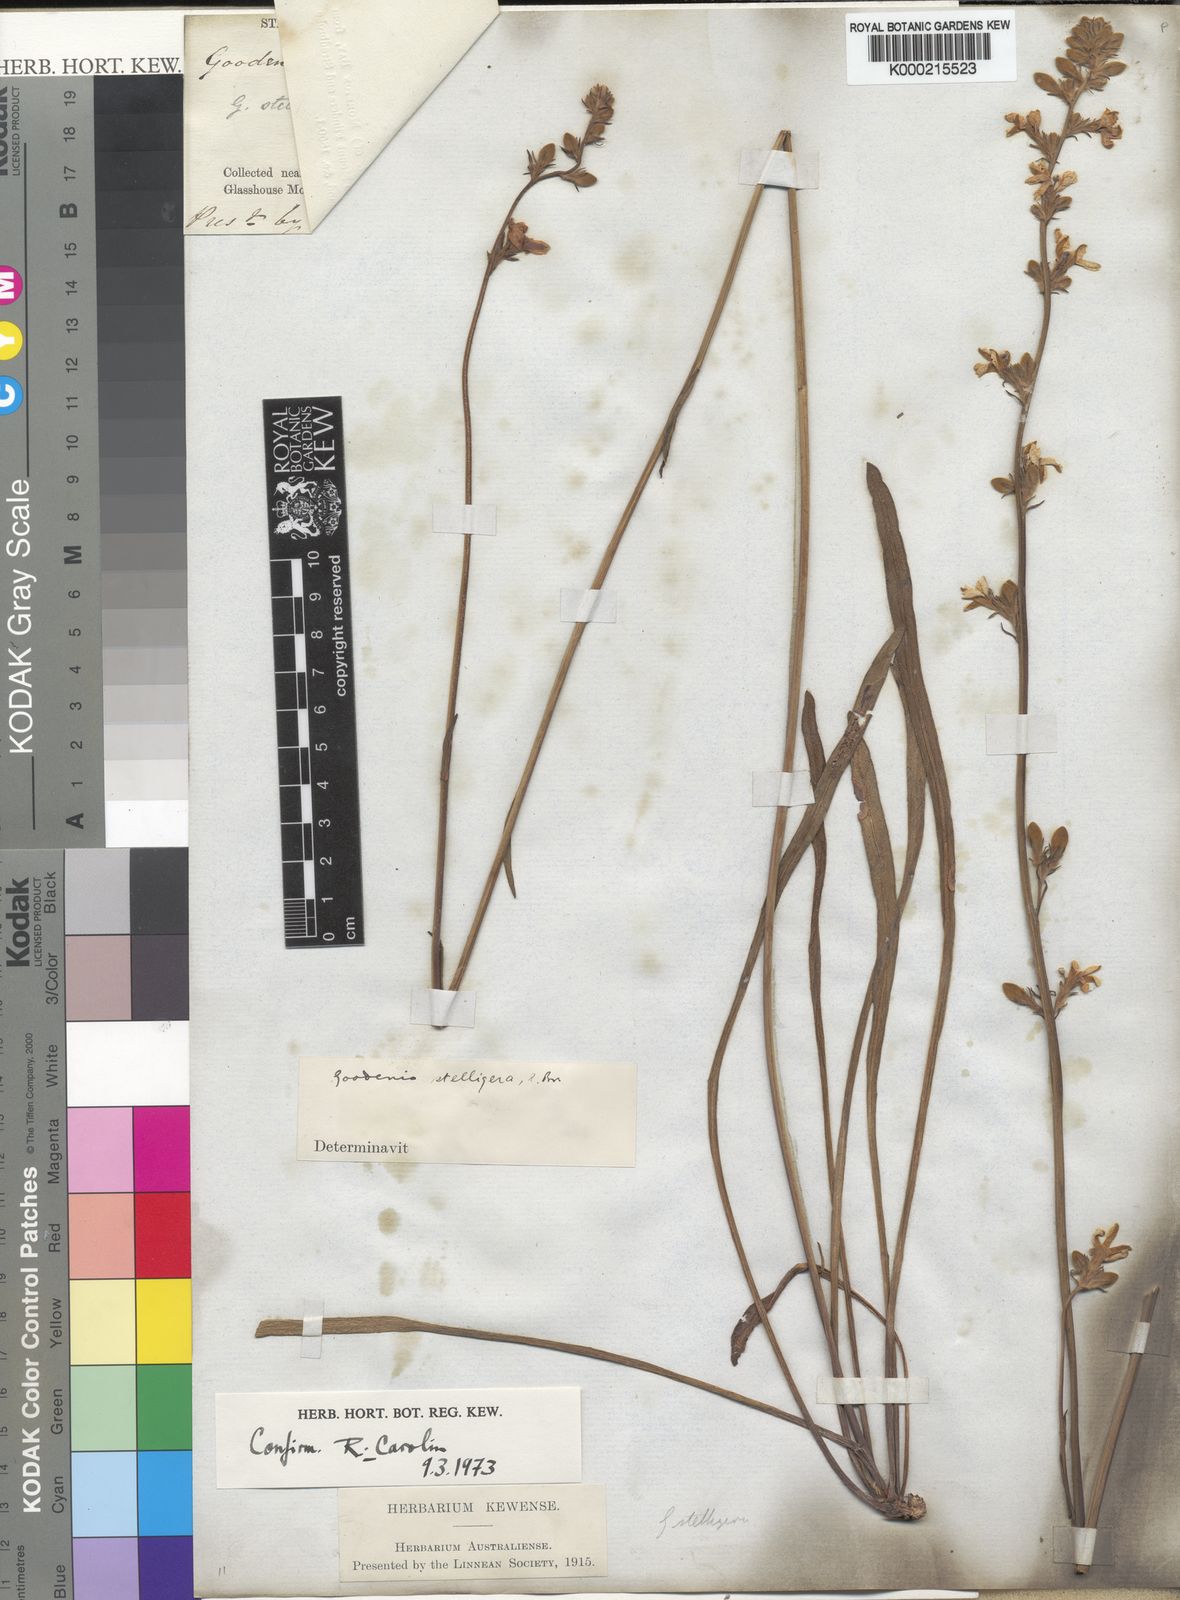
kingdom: Plantae
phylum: Tracheophyta
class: Magnoliopsida
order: Asterales
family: Goodeniaceae
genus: Goodenia
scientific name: Goodenia stelligera
